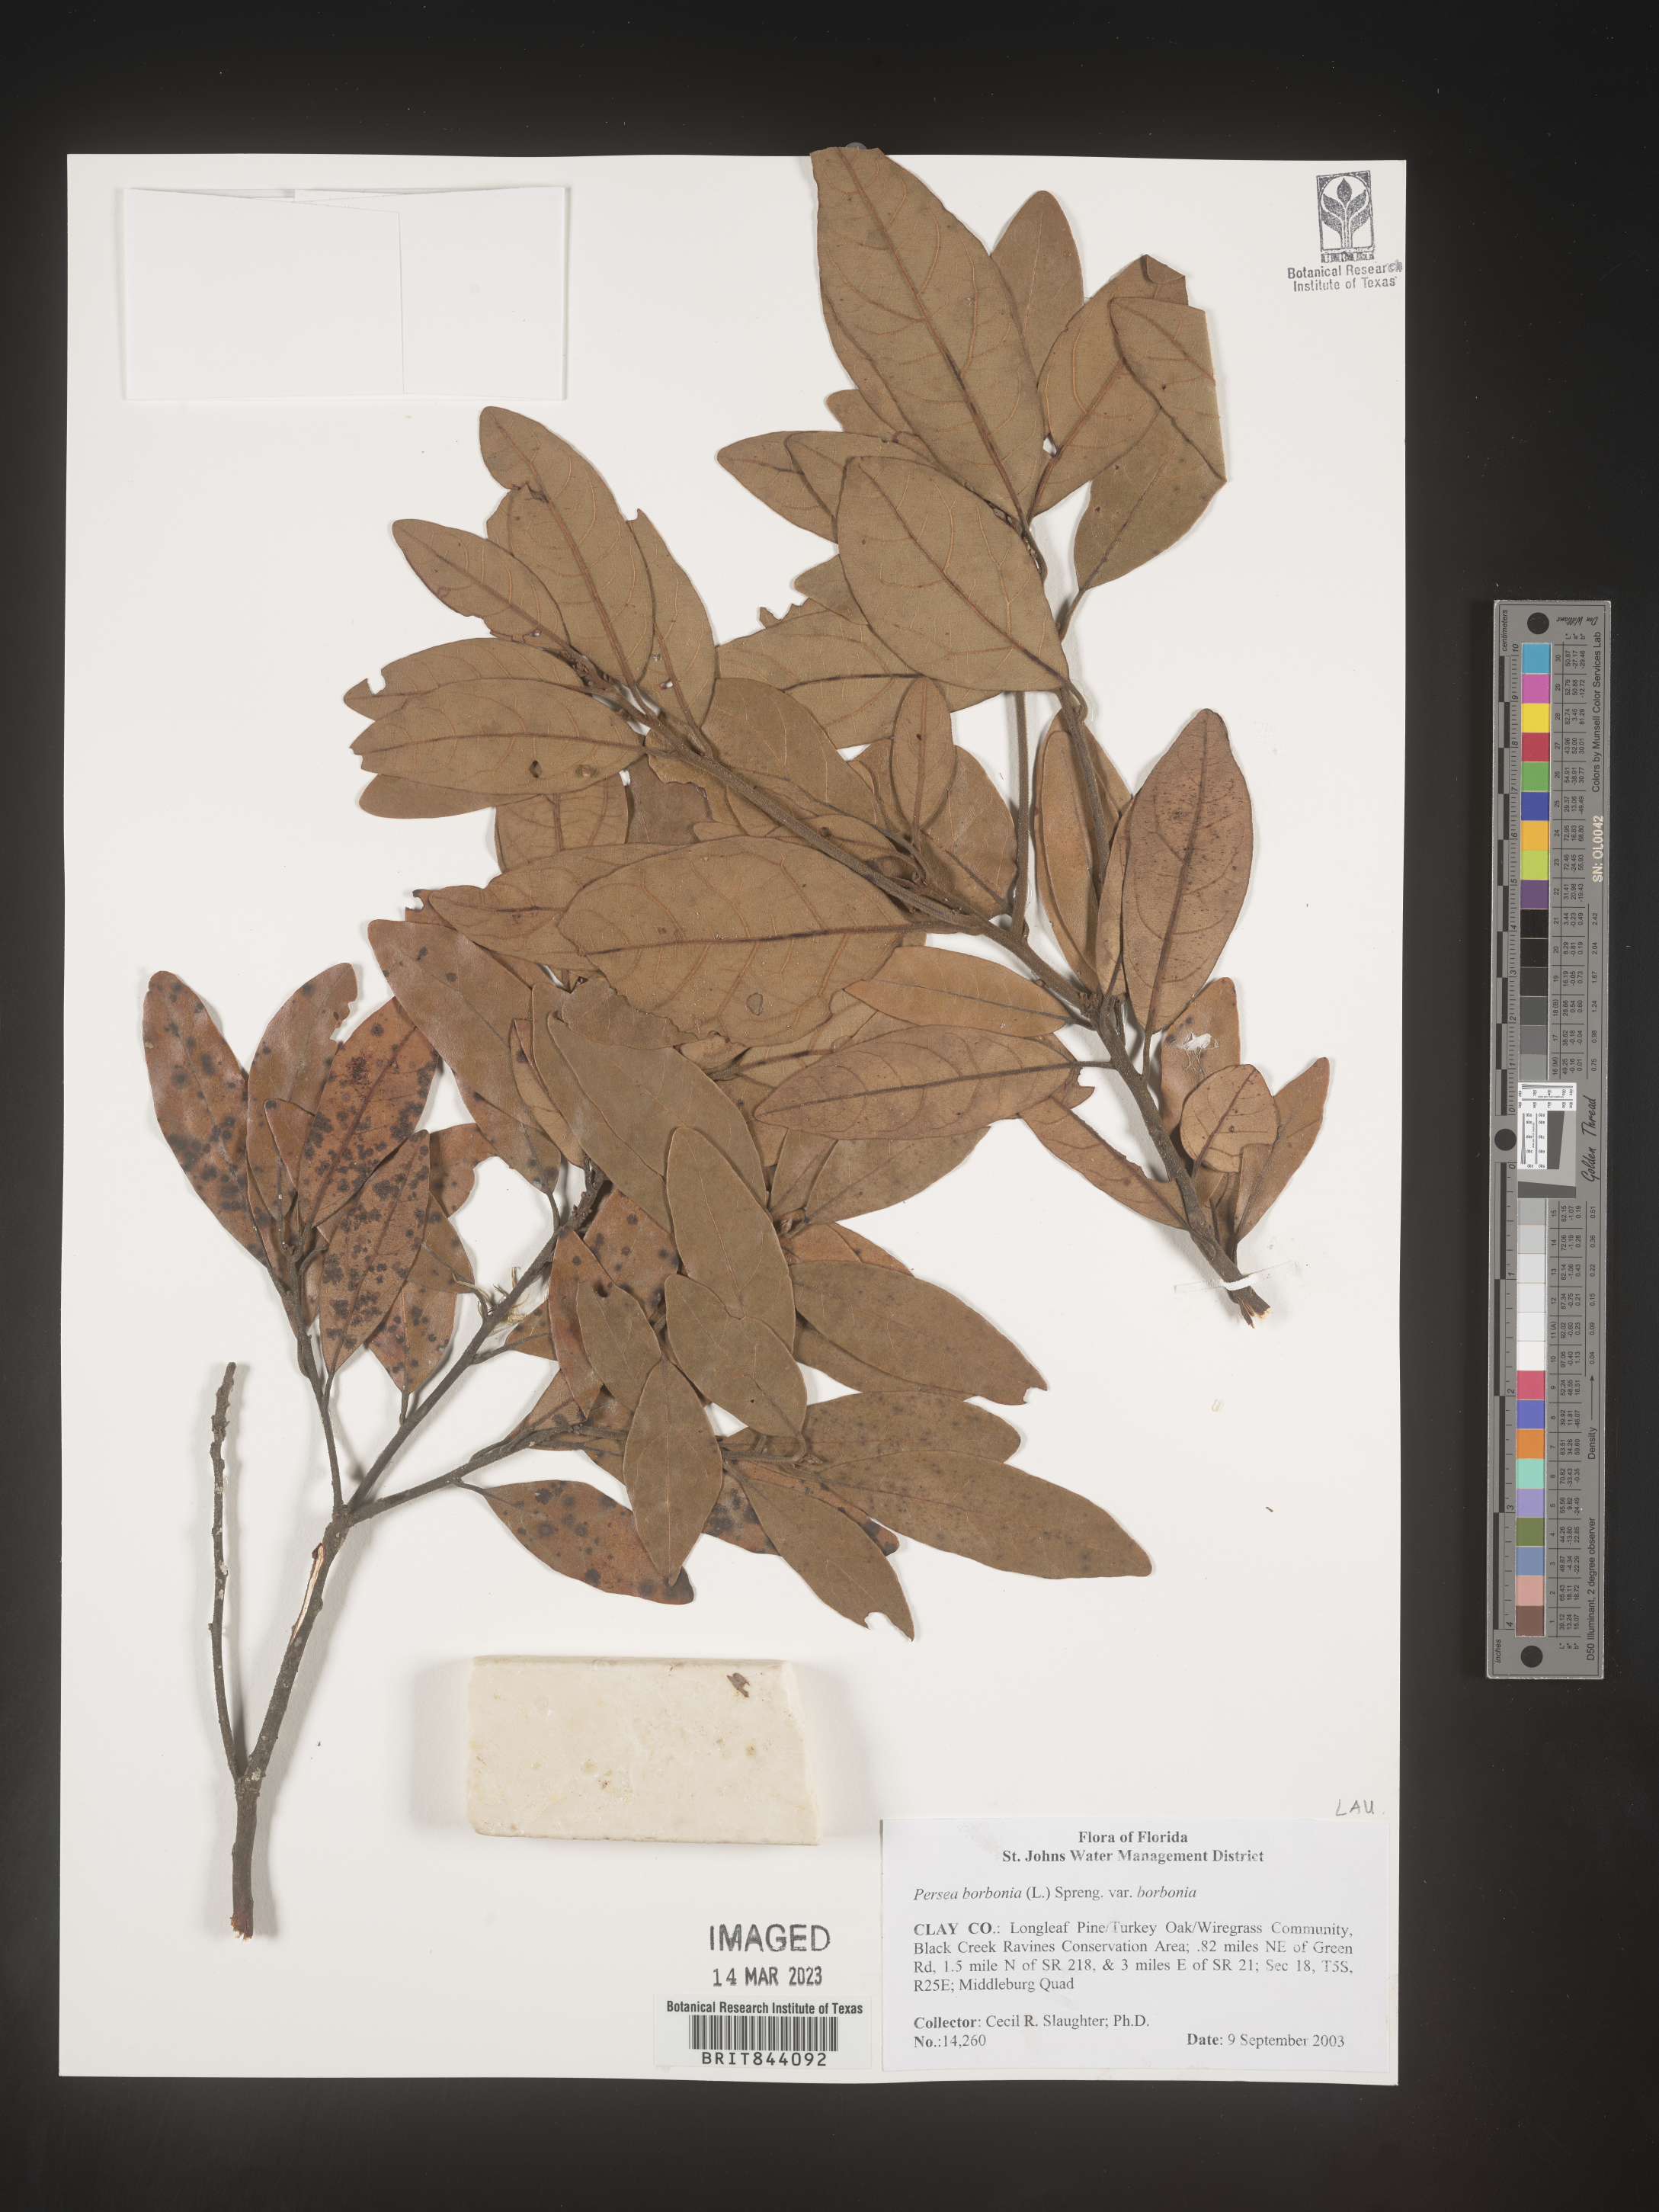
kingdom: Plantae
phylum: Tracheophyta
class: Magnoliopsida
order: Laurales
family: Lauraceae
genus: Persea
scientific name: Persea borbonia
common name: Redbay
